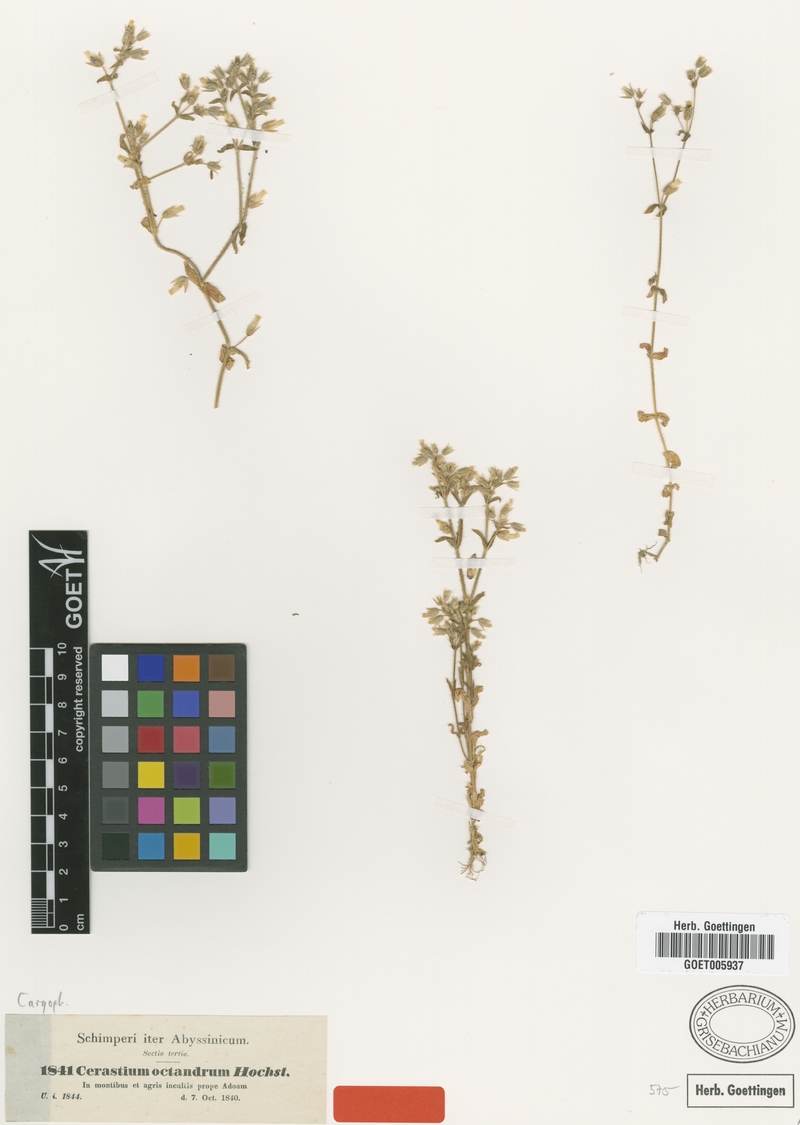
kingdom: Plantae
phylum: Tracheophyta
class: Magnoliopsida
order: Caryophyllales
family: Caryophyllaceae
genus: Cerastium
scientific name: Cerastium octandrum
